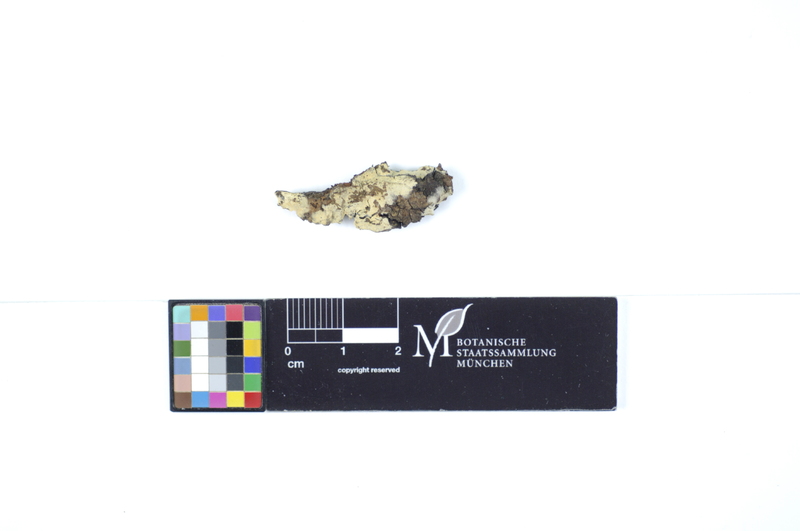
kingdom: Fungi
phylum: Basidiomycota
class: Agaricomycetes
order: Polyporales
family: Hyphodermataceae
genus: Hyphoderma
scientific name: Hyphoderma medioburiense
